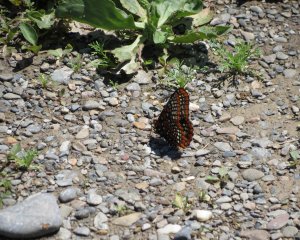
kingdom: Animalia
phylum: Arthropoda
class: Insecta
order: Lepidoptera
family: Nymphalidae
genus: Euphydryas
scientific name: Euphydryas phaeton
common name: Baltimore Checkerspot
